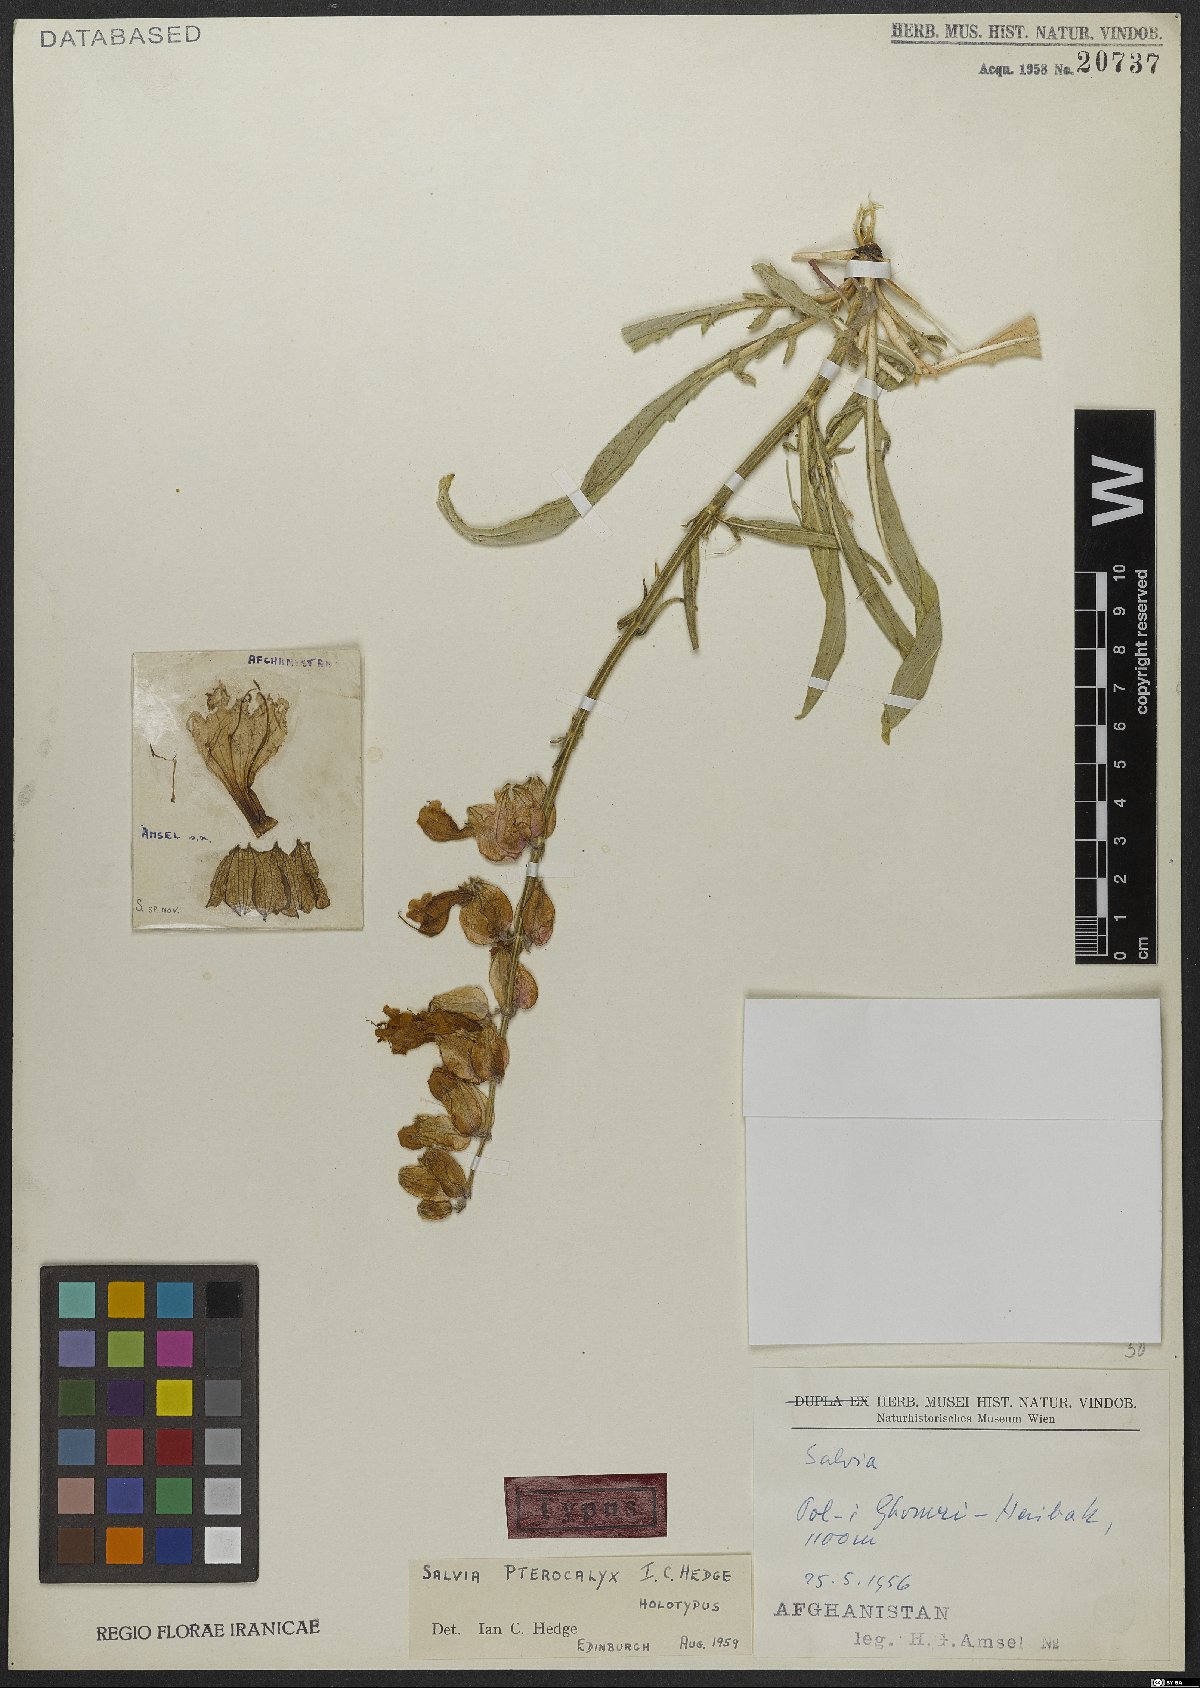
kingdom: Plantae
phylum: Tracheophyta
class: Magnoliopsida
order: Lamiales
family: Lamiaceae
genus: Salvia
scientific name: Salvia pterocalyx
